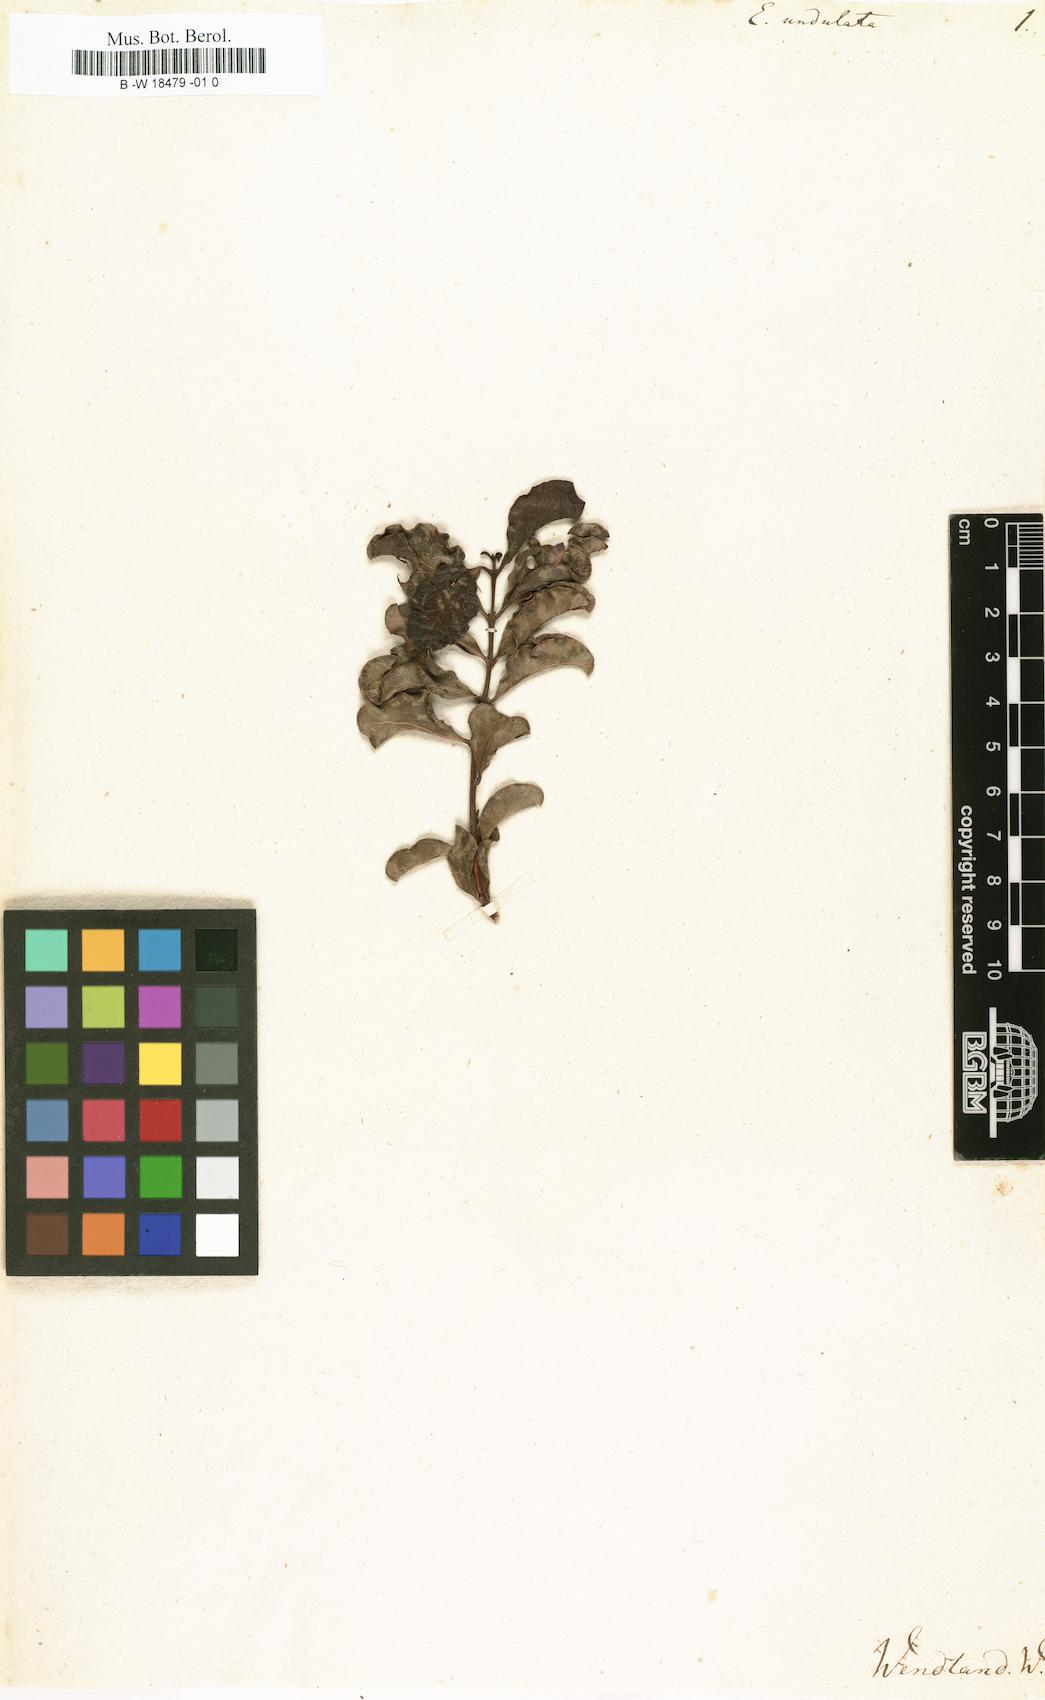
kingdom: Plantae
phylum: Tracheophyta
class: Magnoliopsida
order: Ericales
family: Ebenaceae
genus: Euclea
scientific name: Euclea undulata
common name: Small-leaved guarri
